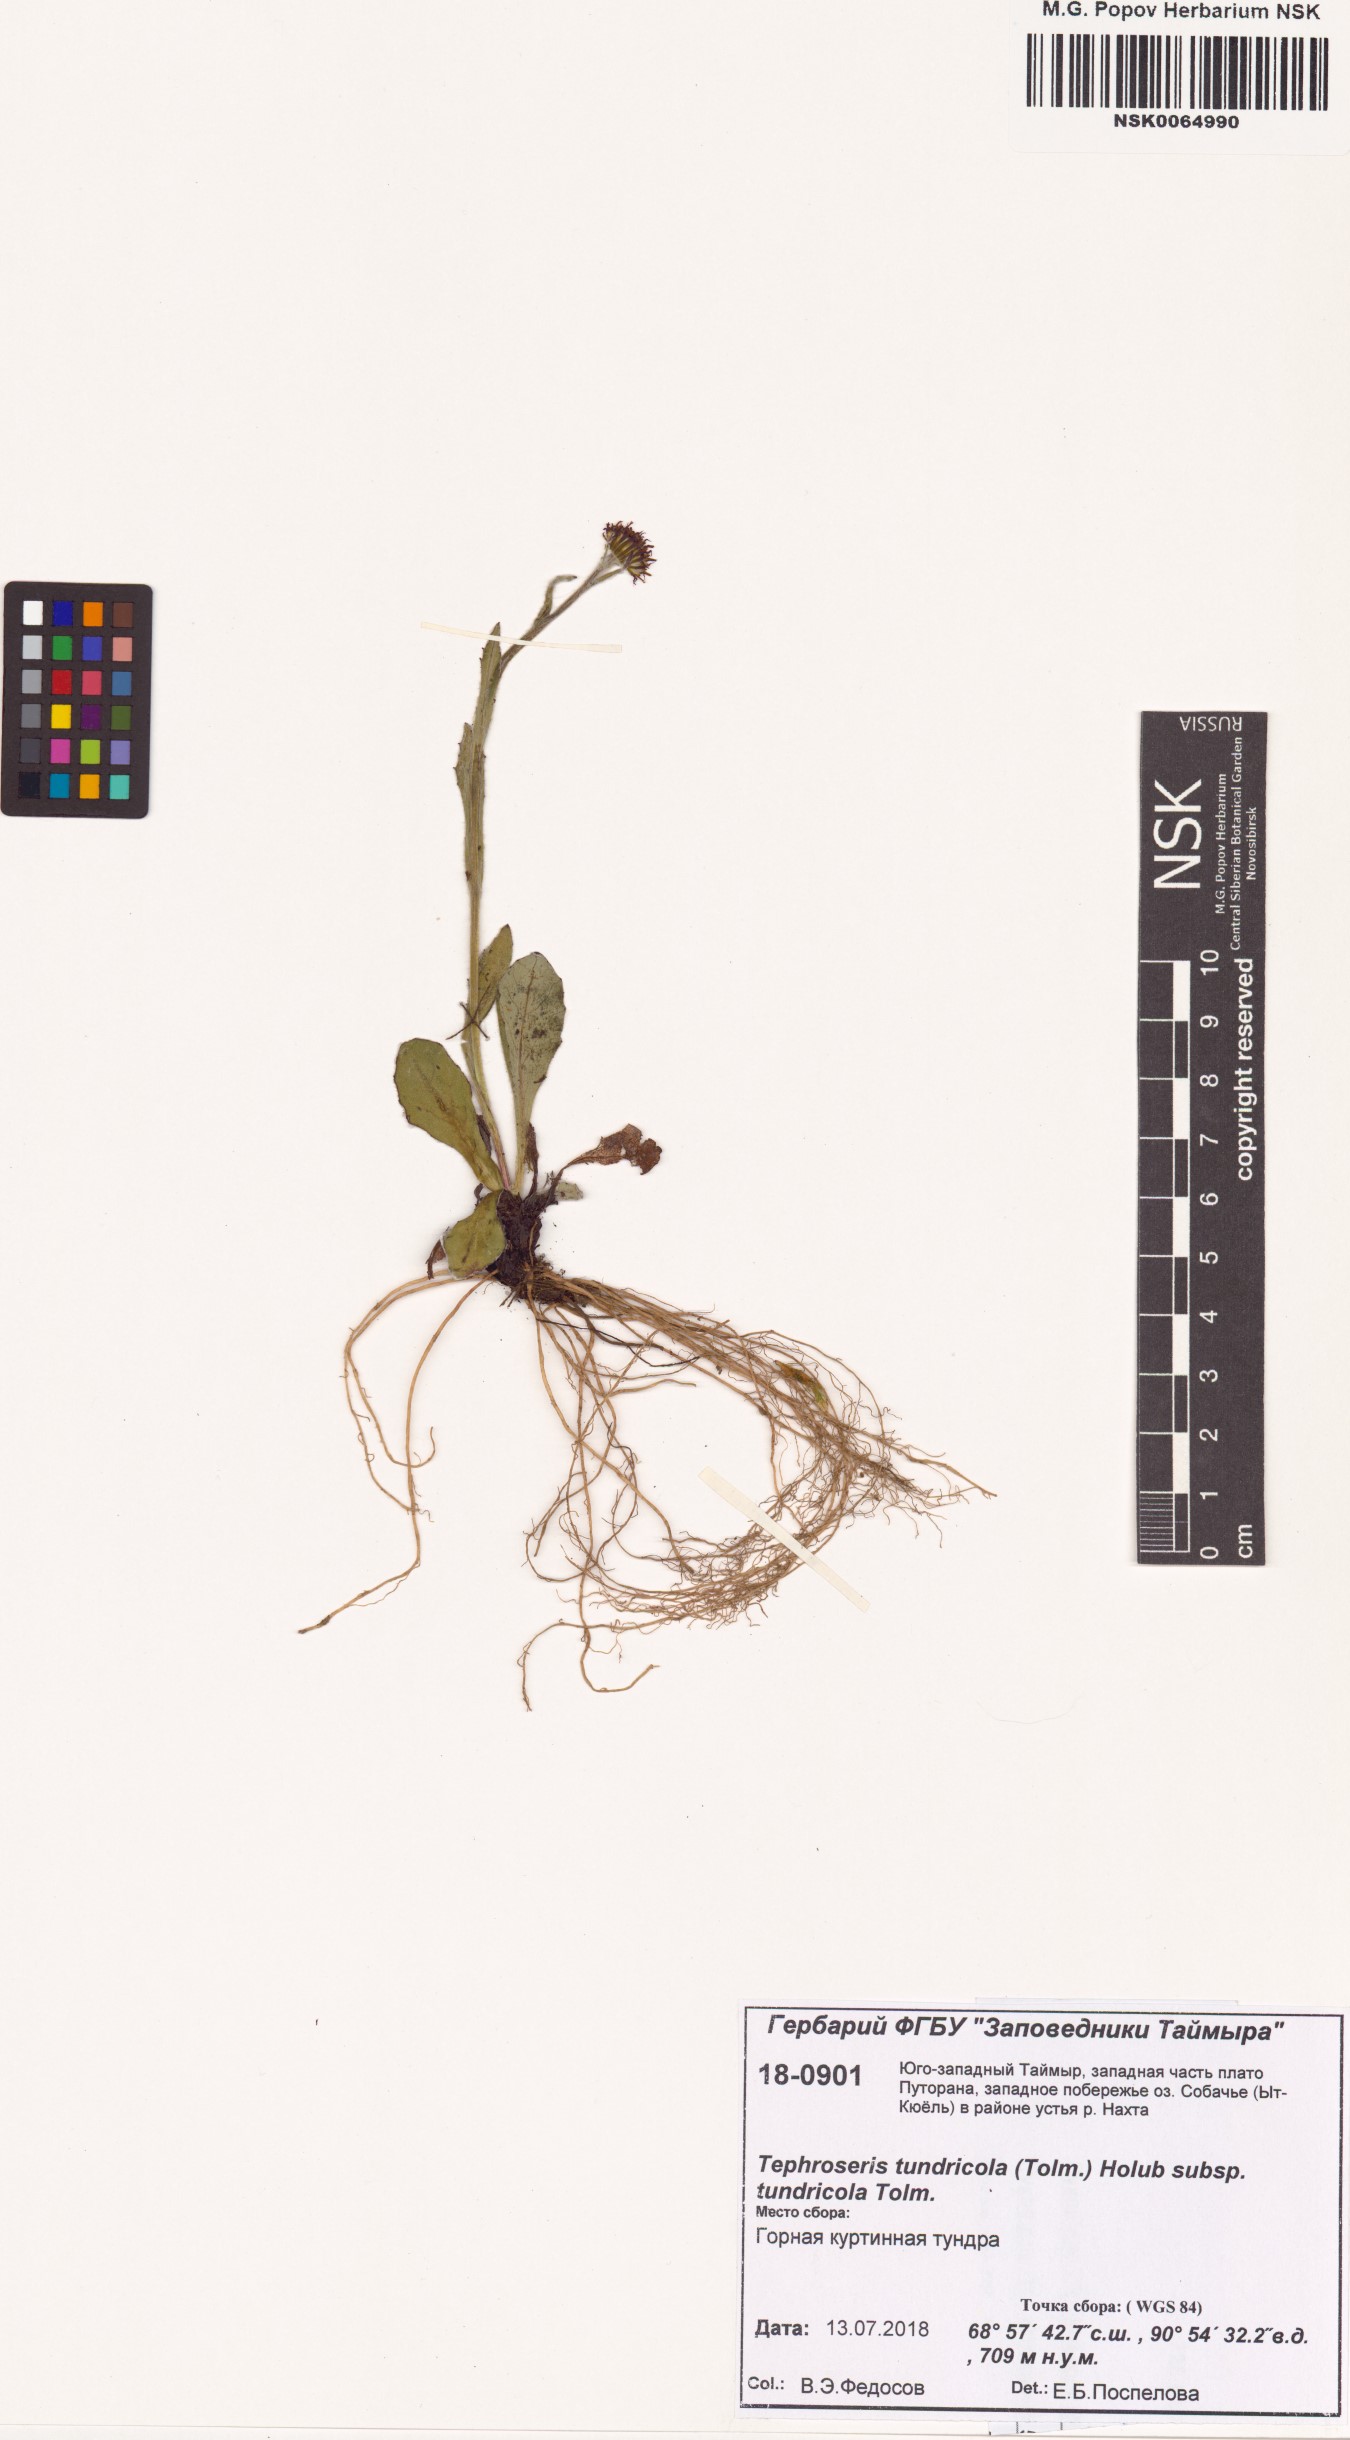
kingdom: Plantae
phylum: Tracheophyta
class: Magnoliopsida
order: Asterales
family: Asteraceae
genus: Tephroseris
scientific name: Tephroseris integrifolia
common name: Field fleawort
